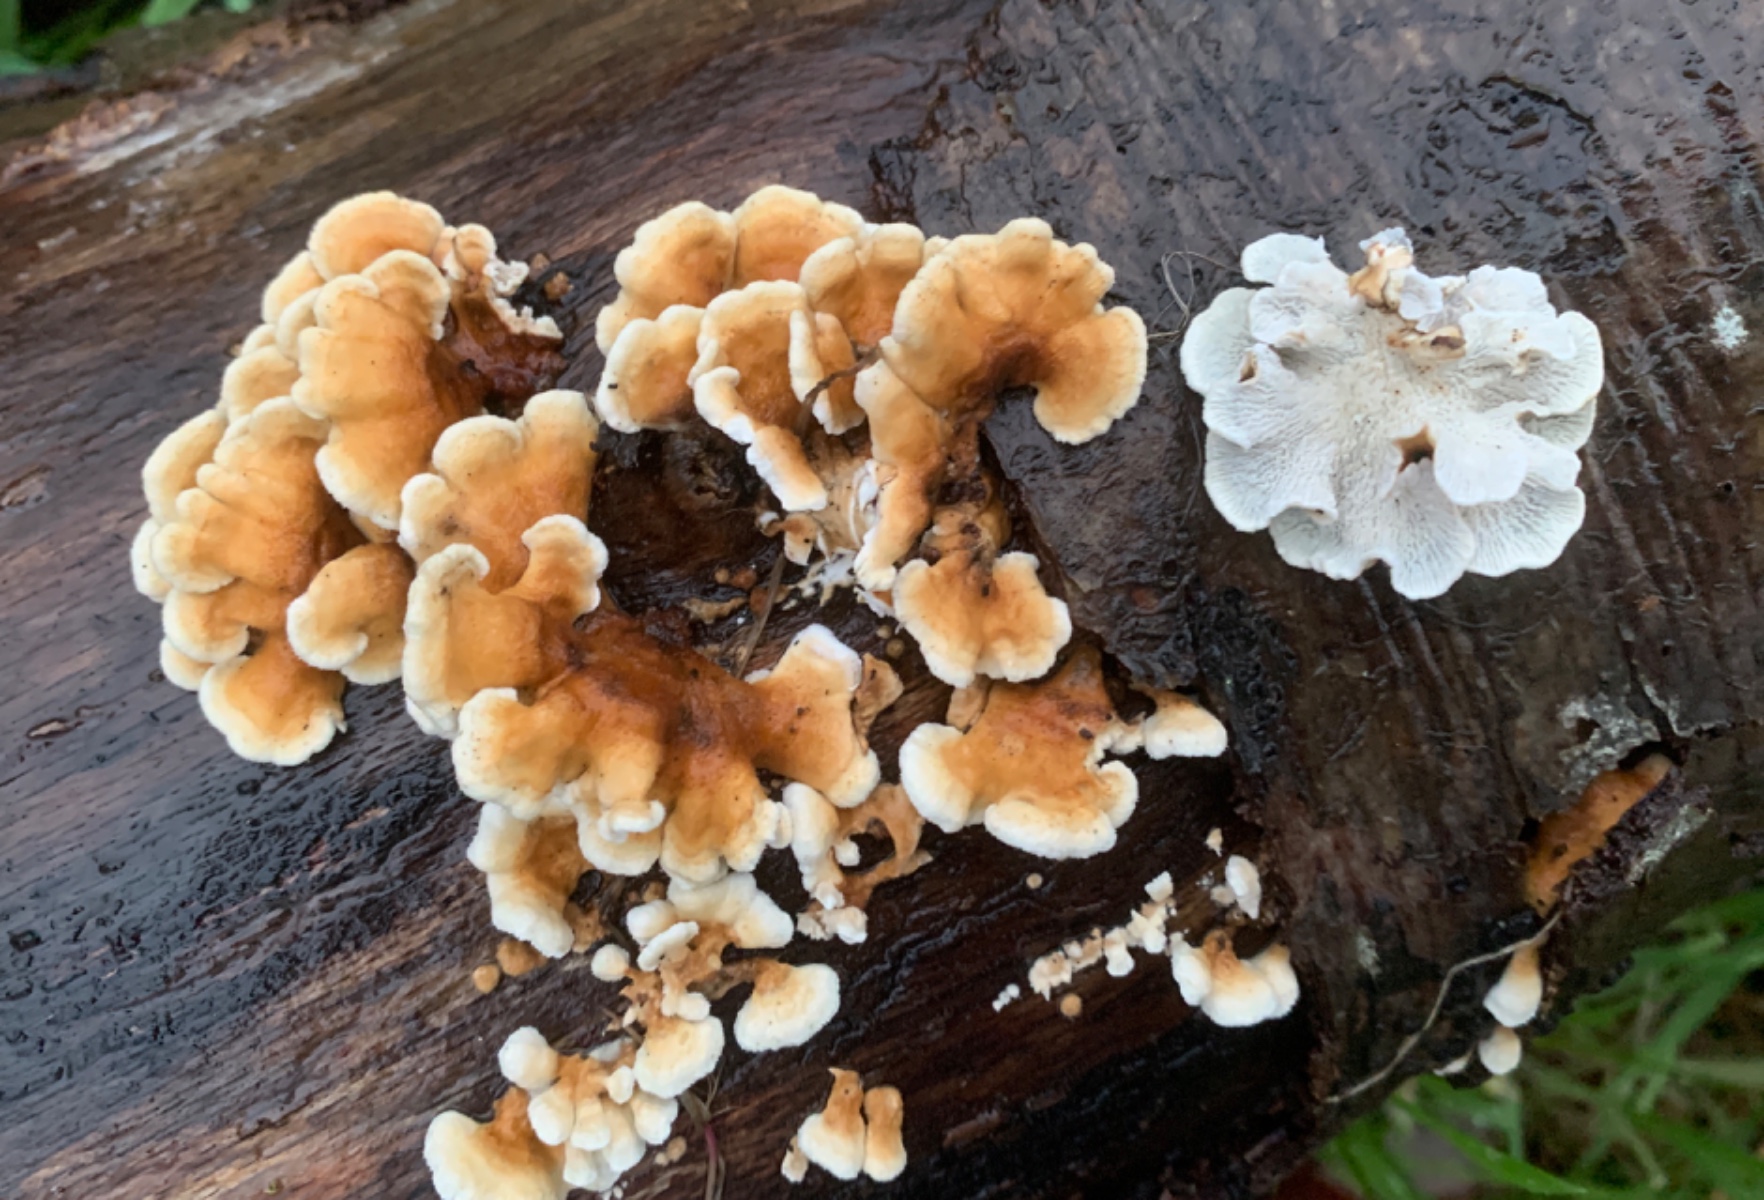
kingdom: Fungi
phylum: Basidiomycota
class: Agaricomycetes
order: Amylocorticiales
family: Amylocorticiaceae
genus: Plicaturopsis
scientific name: Plicaturopsis crispa
